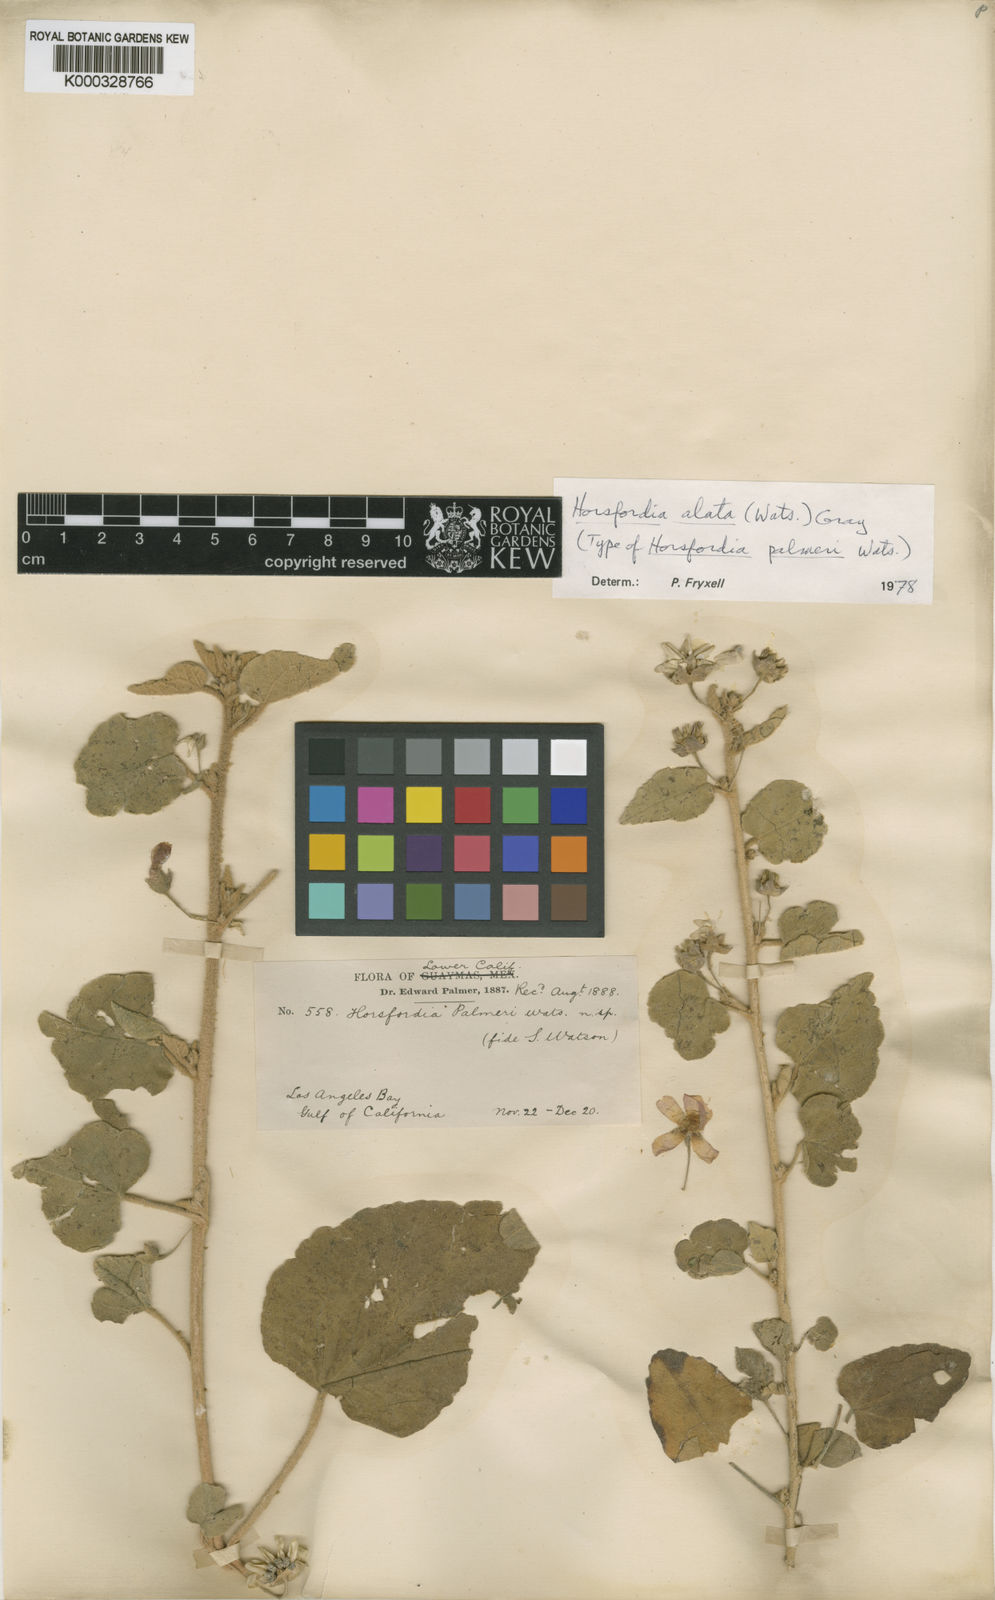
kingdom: Plantae
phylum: Tracheophyta
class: Magnoliopsida
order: Malvales
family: Malvaceae
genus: Horsfordia
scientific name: Horsfordia alata
